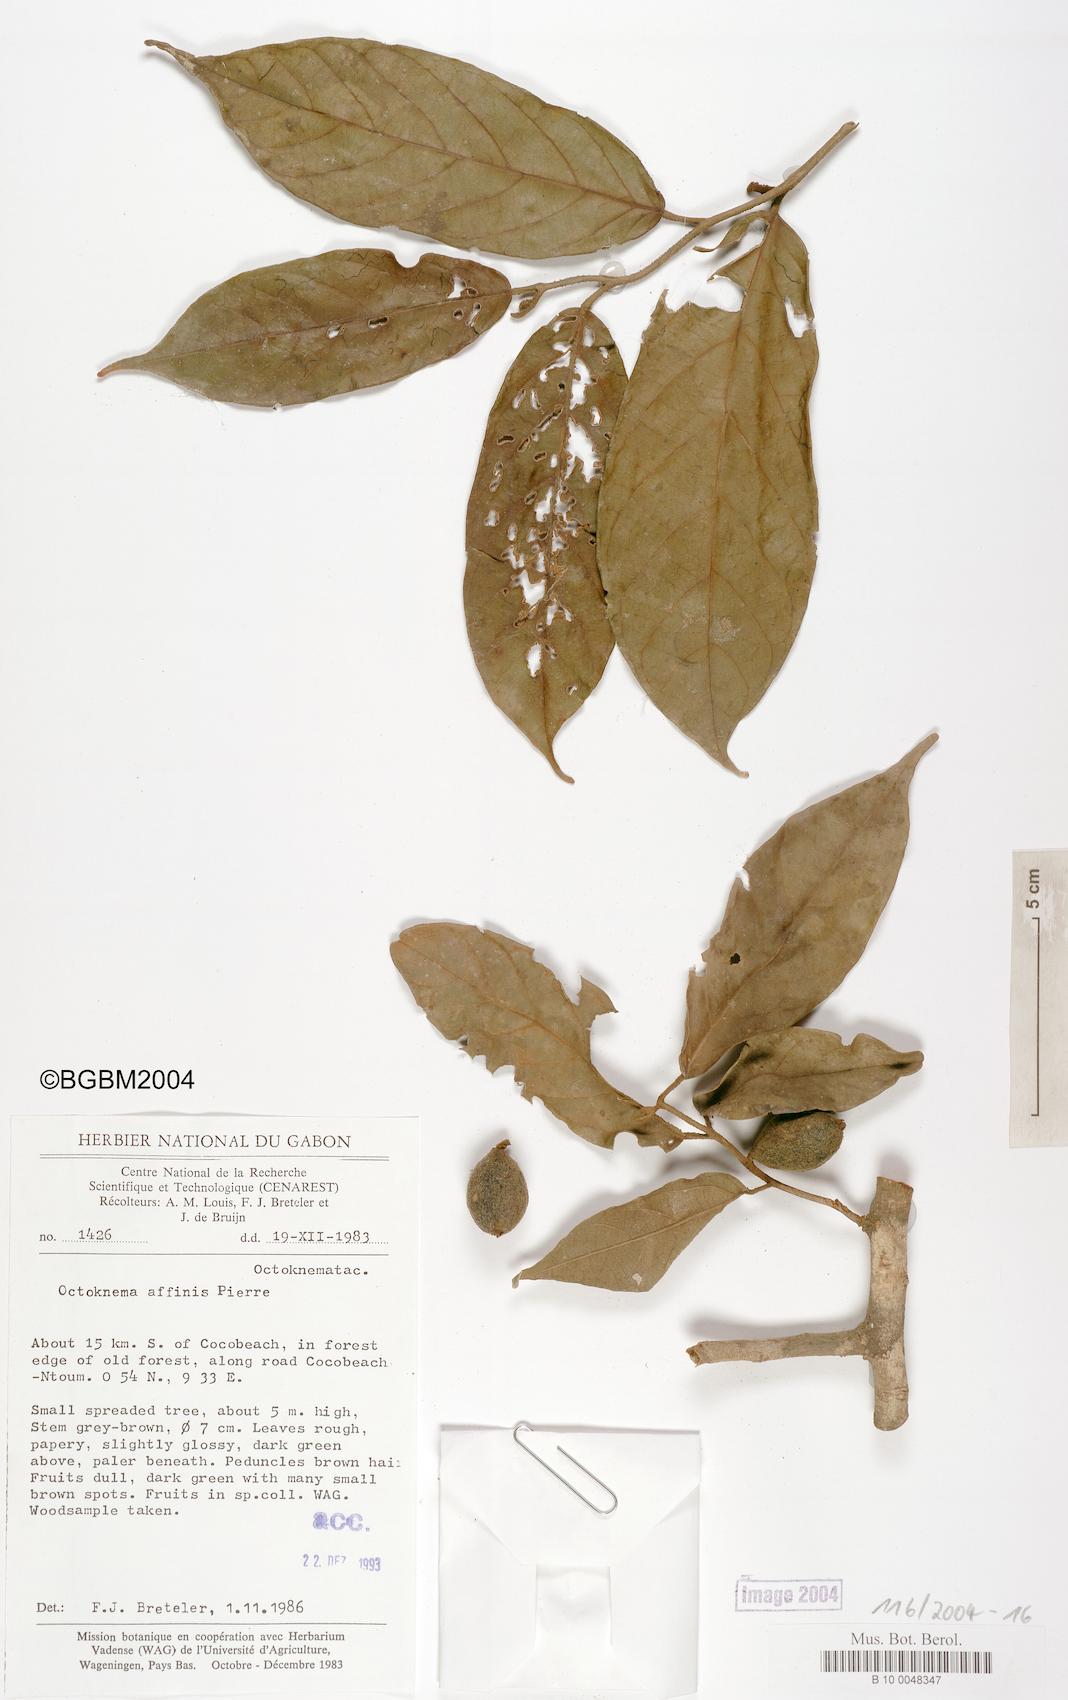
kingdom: Plantae
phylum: Tracheophyta
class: Magnoliopsida
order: Santalales
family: Octoknemaceae
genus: Octoknema
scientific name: Octoknema klaineana
